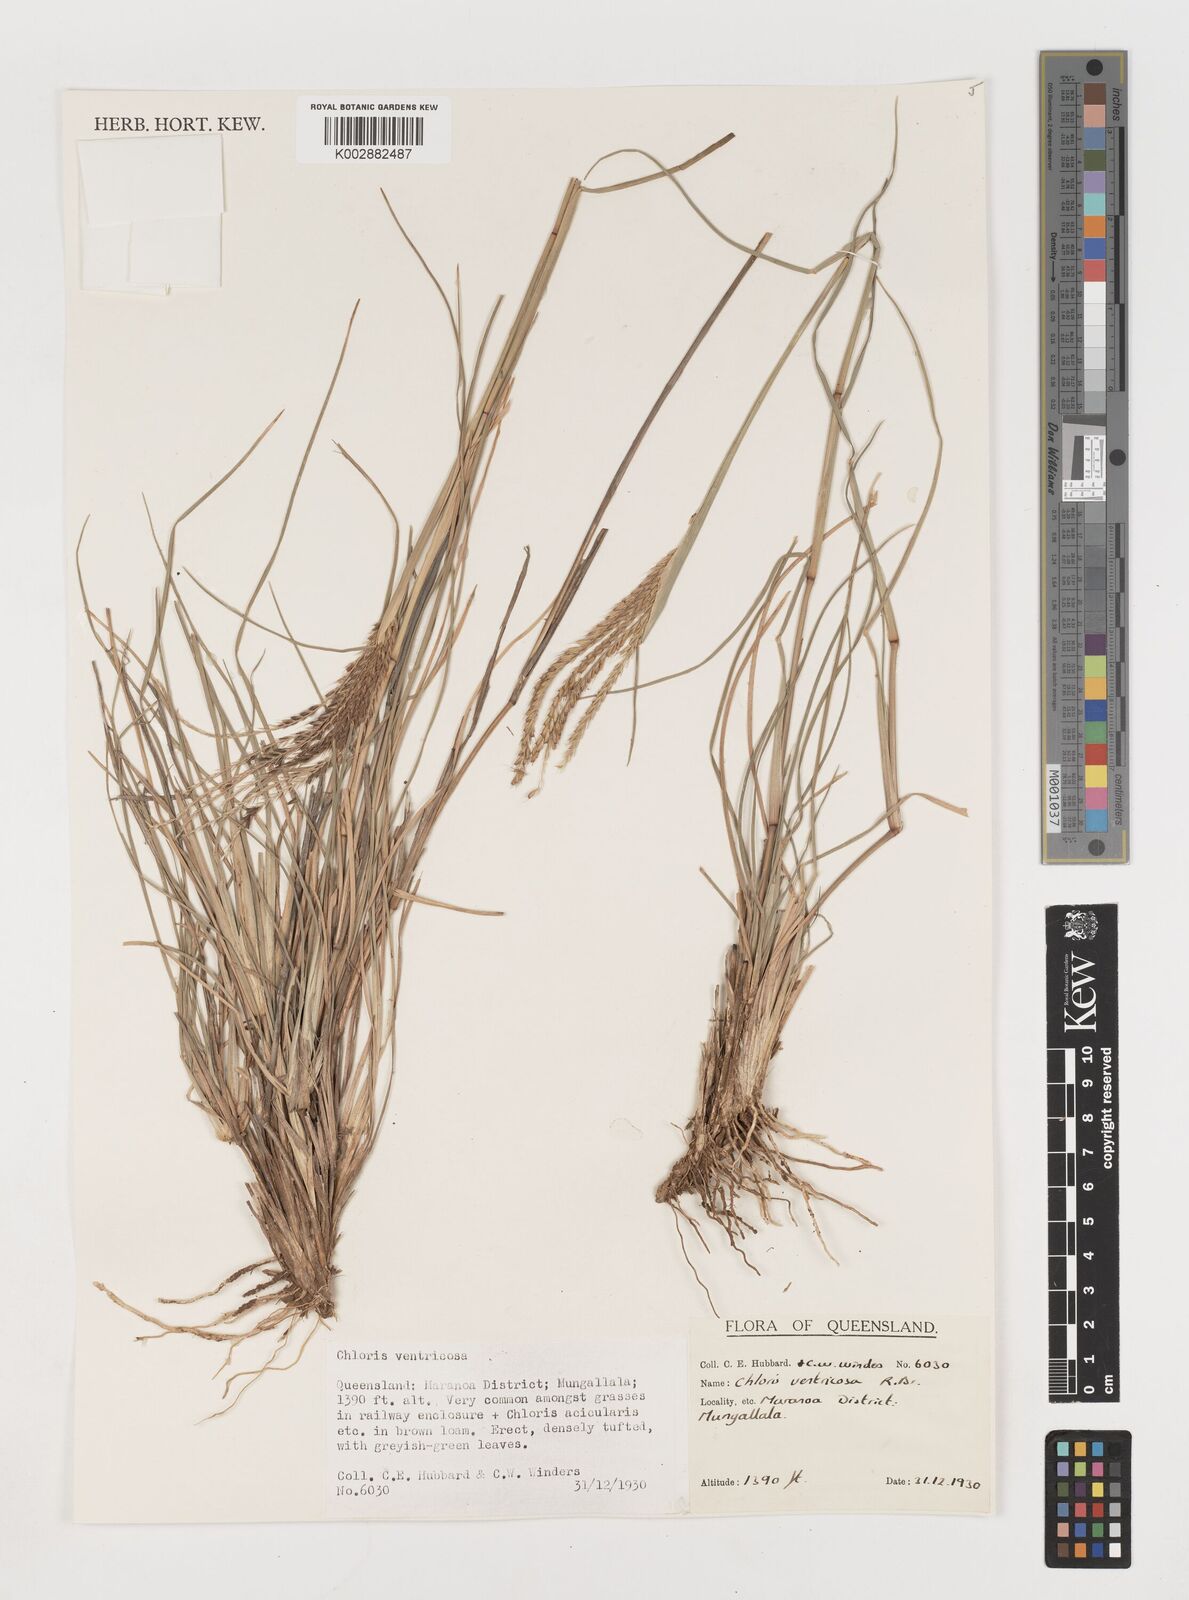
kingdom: Plantae
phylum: Tracheophyta
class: Liliopsida
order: Poales
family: Poaceae
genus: Chloris
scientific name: Chloris ventricosa
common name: Australian windmill grass
